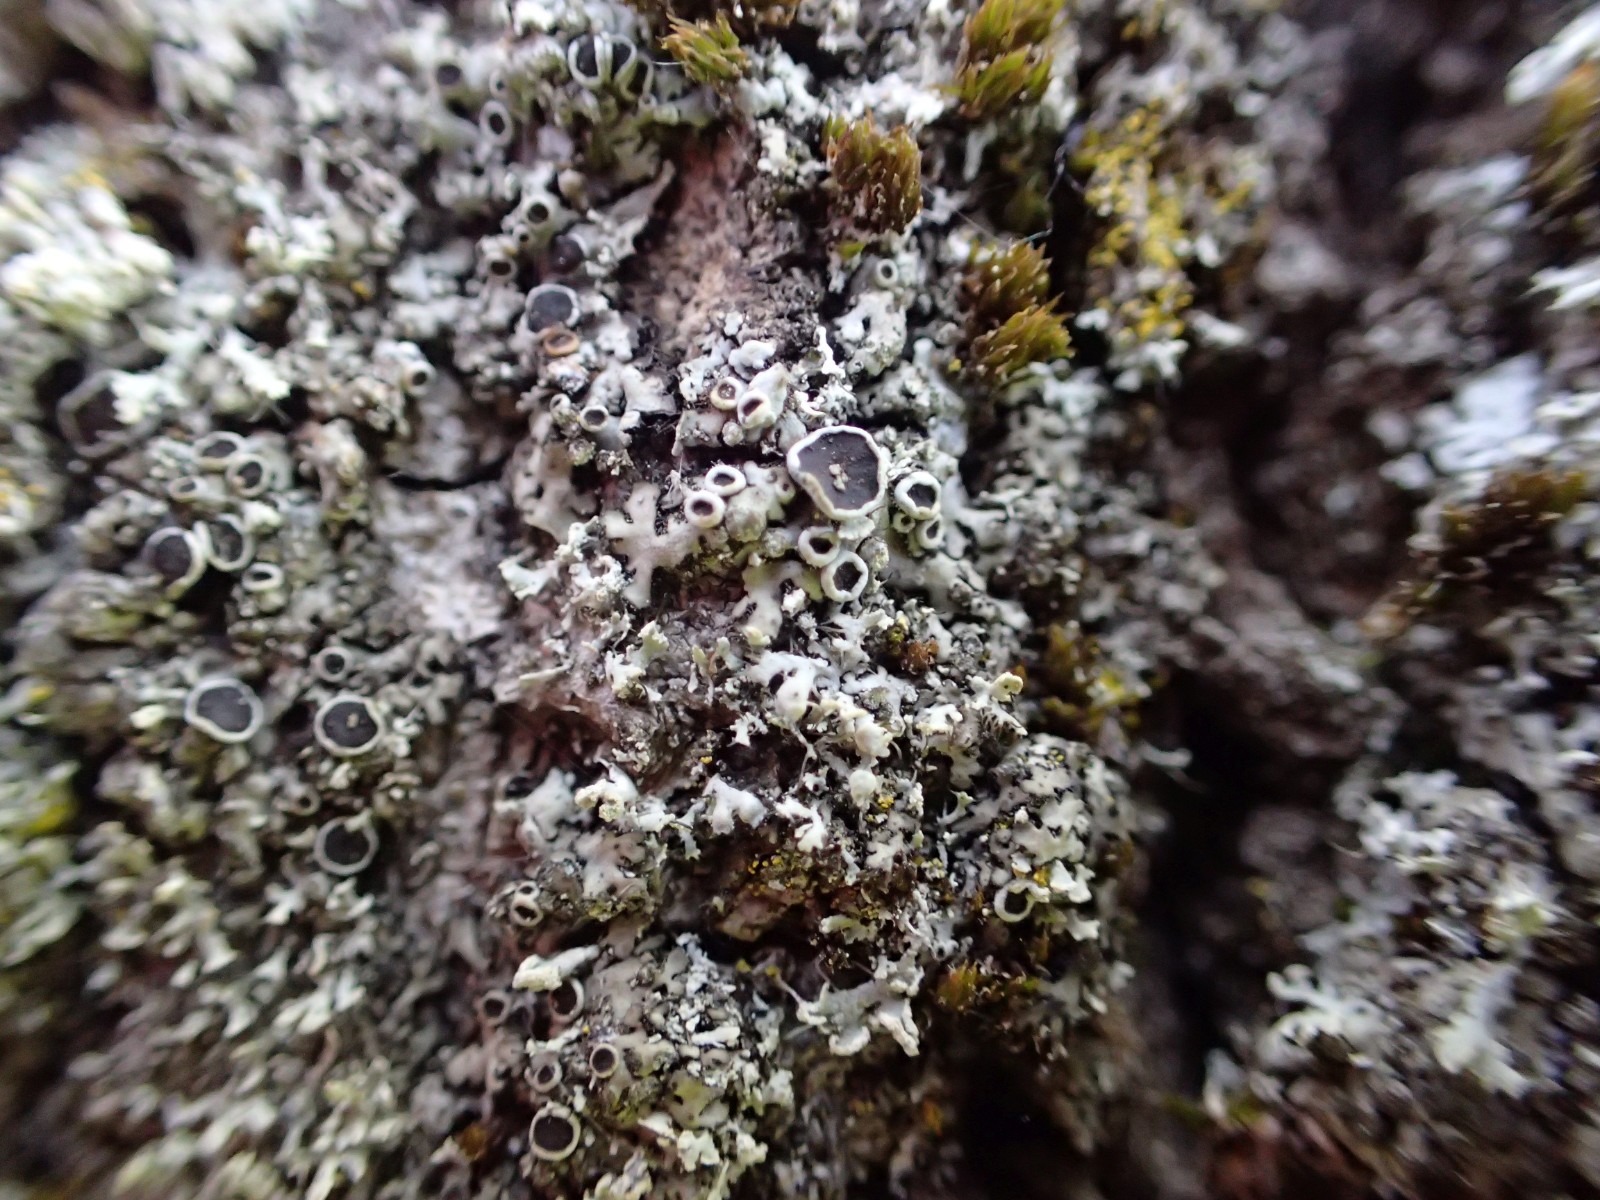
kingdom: Fungi
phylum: Ascomycota
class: Lecanoromycetes
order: Caliciales
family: Physciaceae
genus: Phaeophyscia
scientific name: Phaeophyscia orbicularis
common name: grågrøn rosetlav
